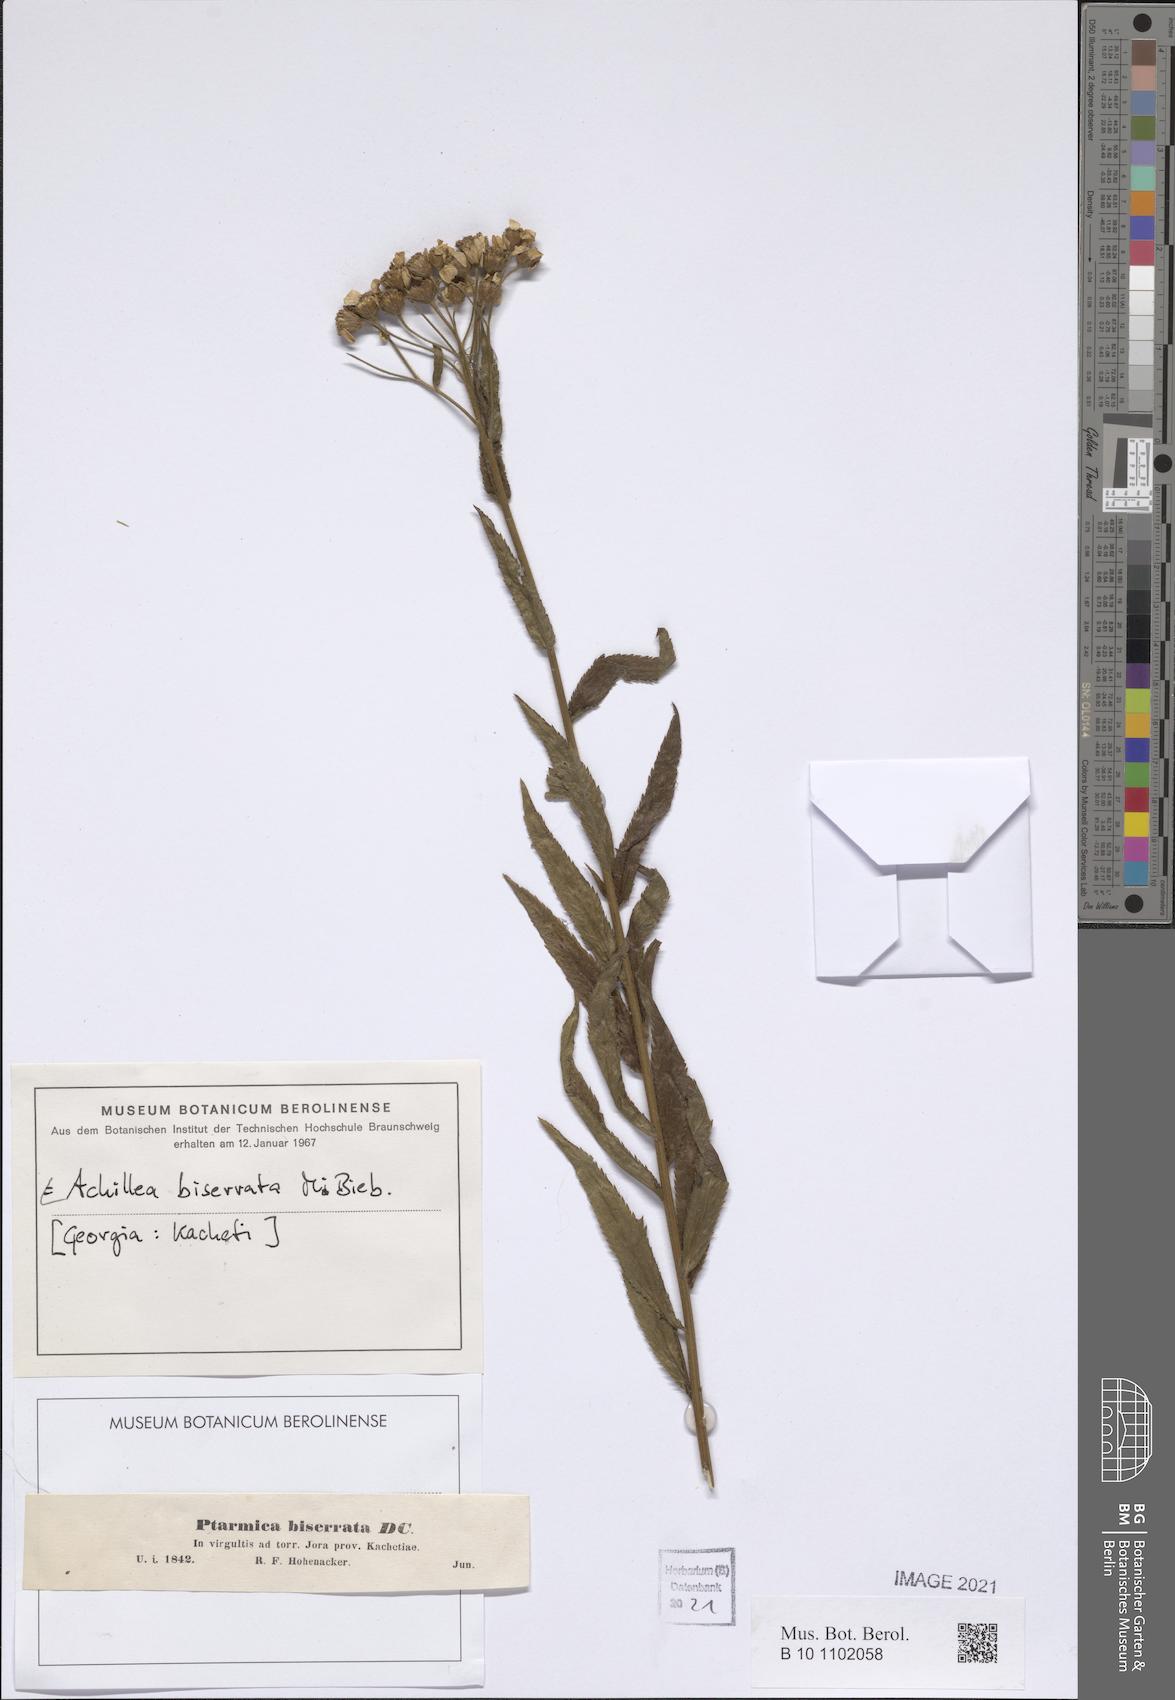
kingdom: Plantae
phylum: Tracheophyta
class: Magnoliopsida
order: Asterales
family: Asteraceae
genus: Achillea
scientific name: Achillea biserrata
